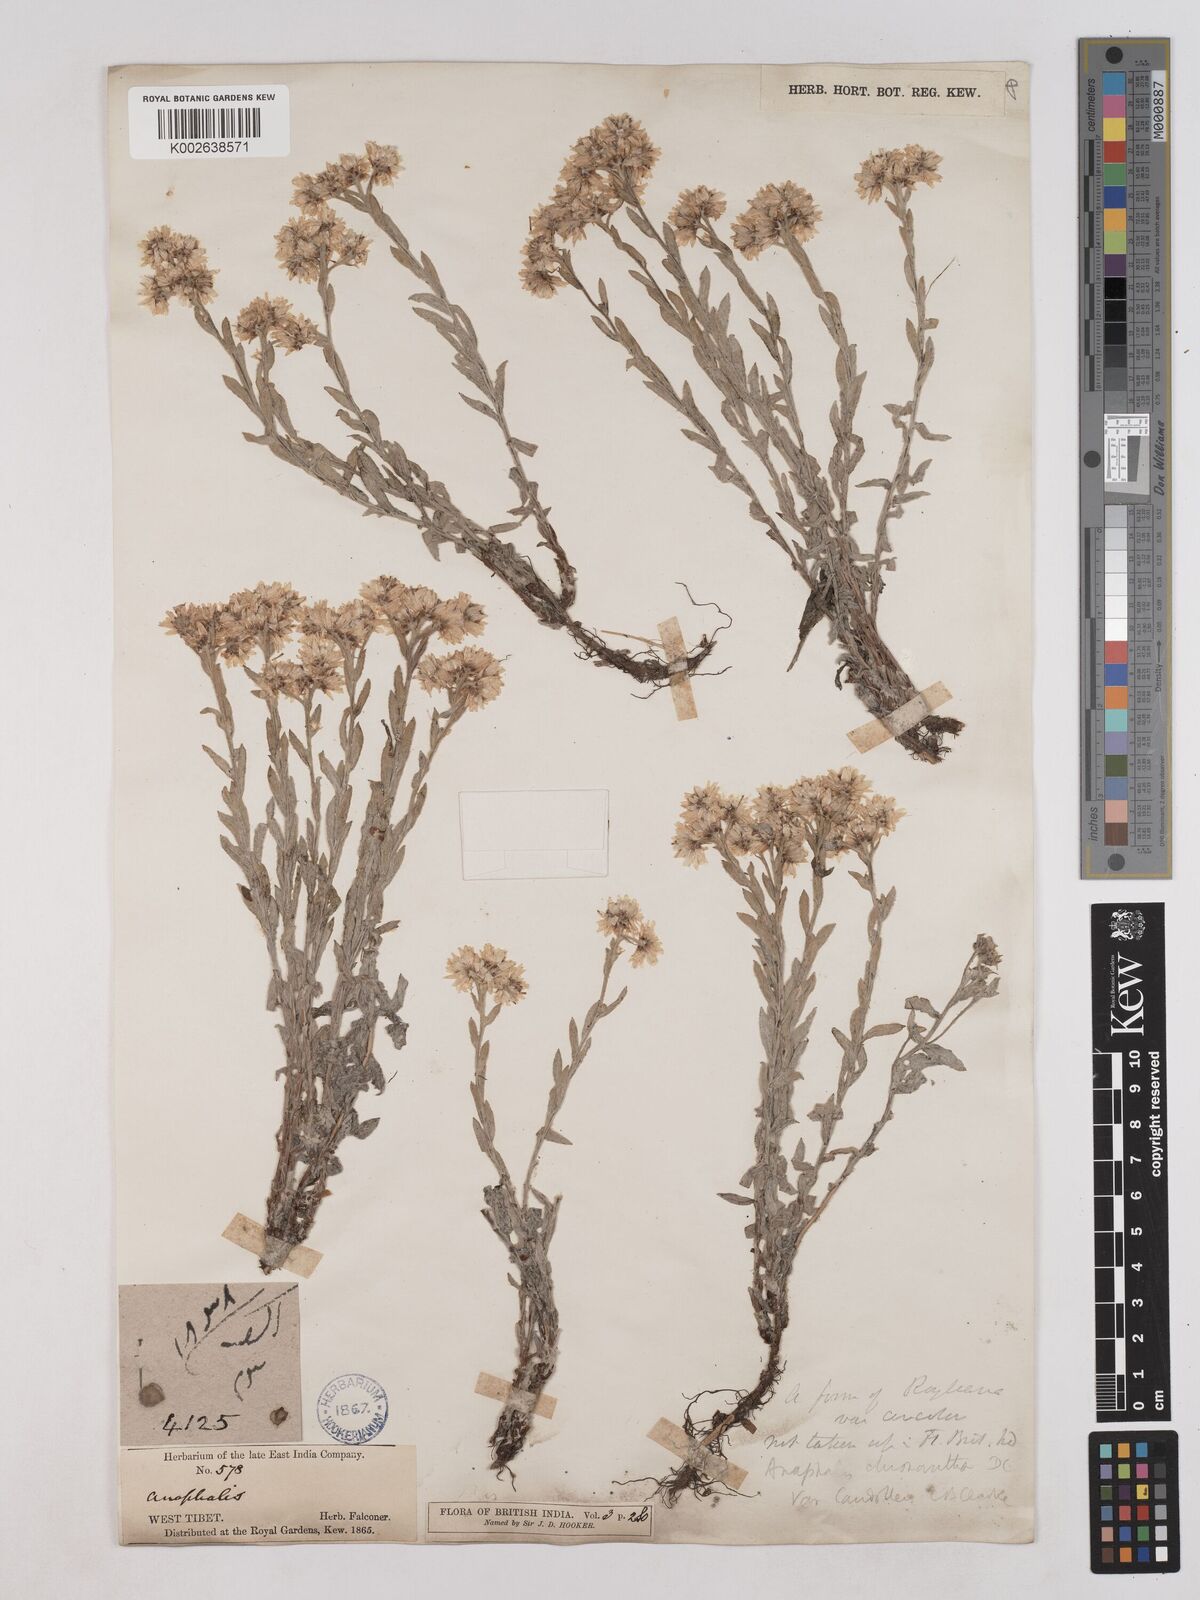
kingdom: Plantae
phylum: Tracheophyta
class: Magnoliopsida
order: Asterales
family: Asteraceae
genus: Anaphalis
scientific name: Anaphalis royleana
